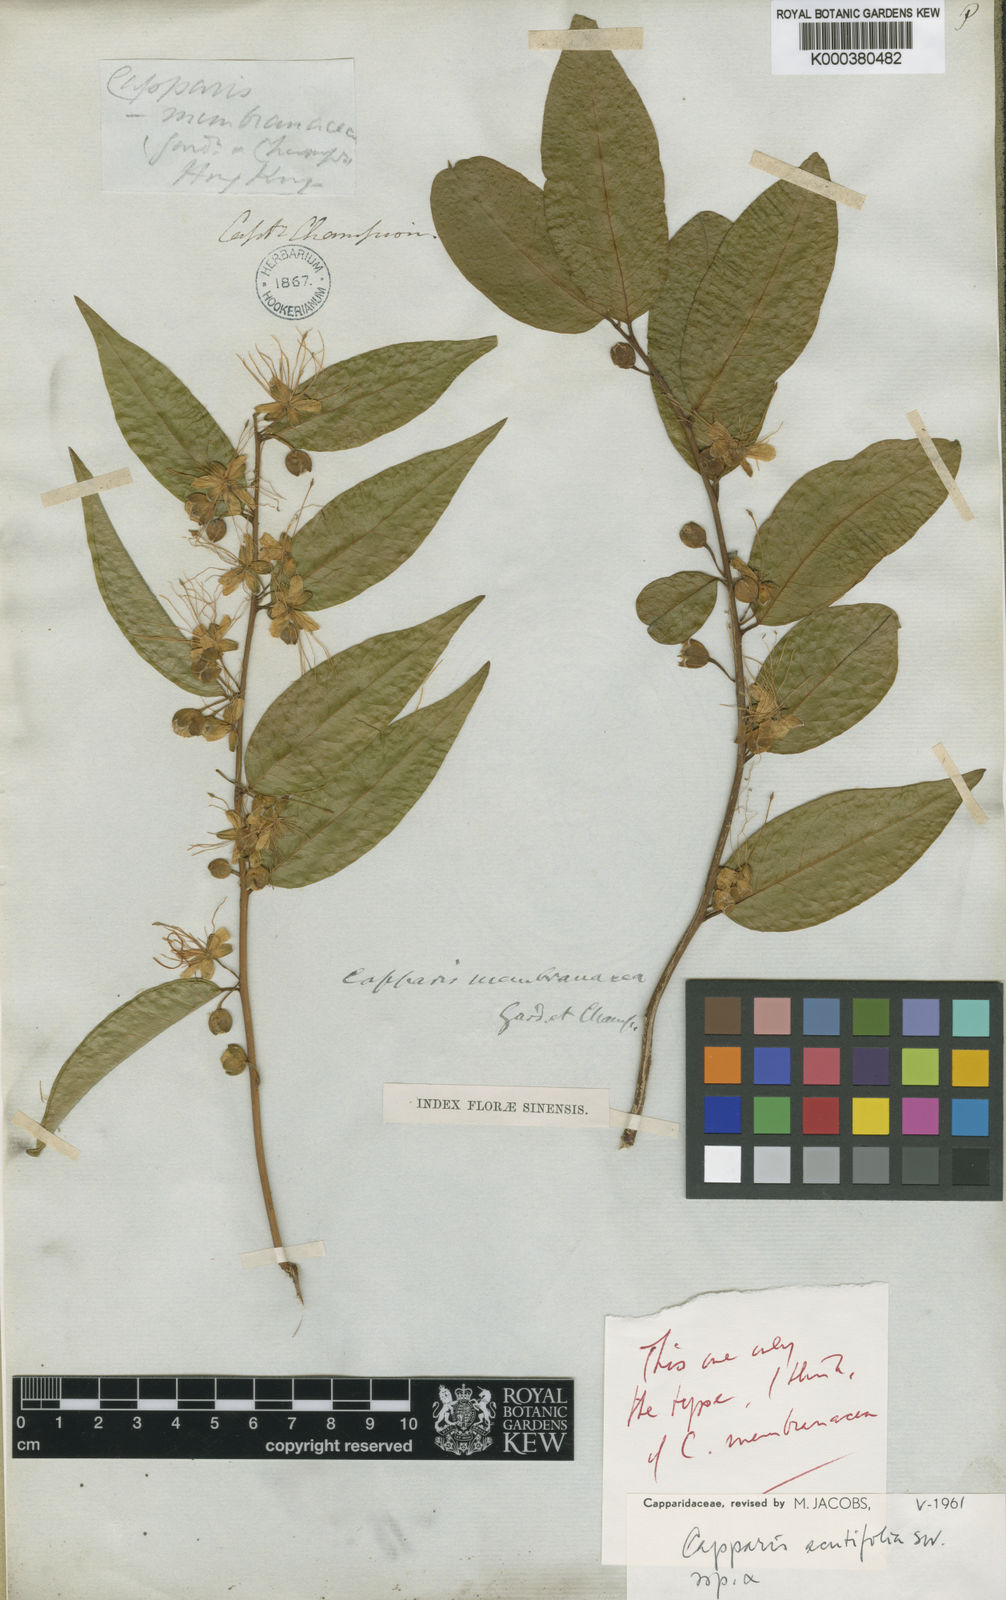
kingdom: Plantae
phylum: Tracheophyta
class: Magnoliopsida
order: Brassicales
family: Capparaceae
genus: Capparis
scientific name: Capparis acutifolia
